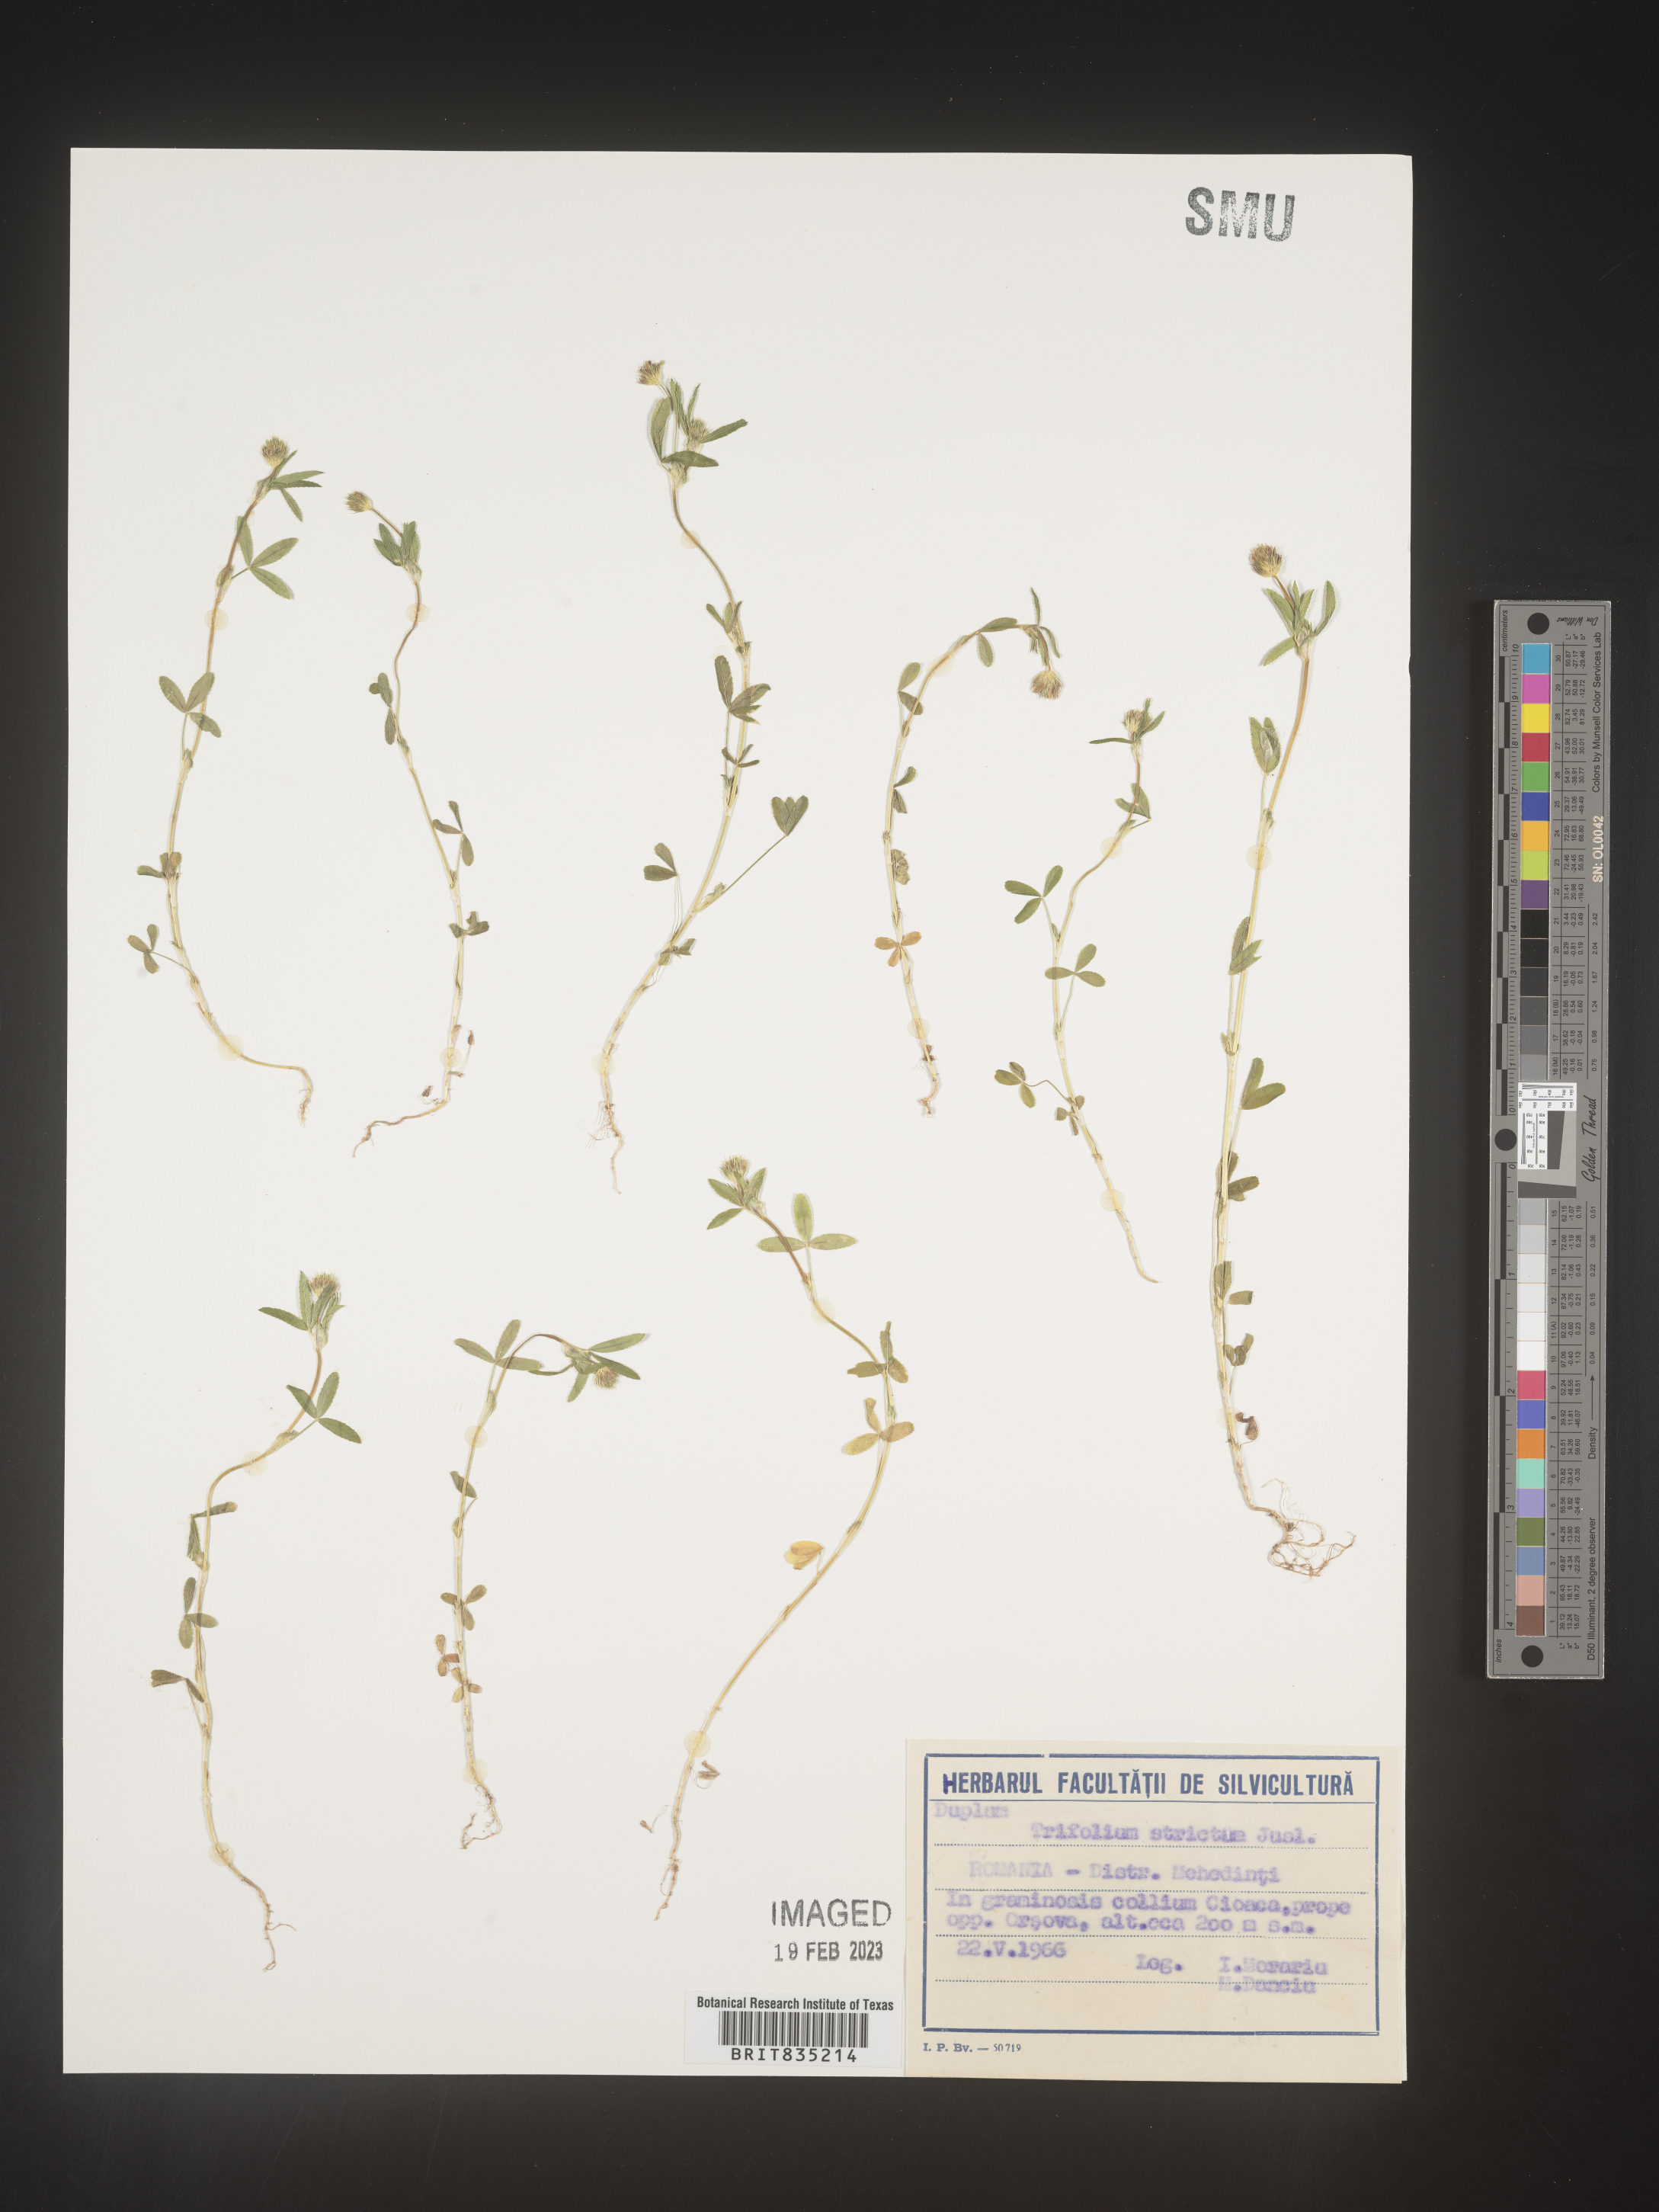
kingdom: Plantae
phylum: Tracheophyta
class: Magnoliopsida
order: Fabales
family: Fabaceae
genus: Trifolium
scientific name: Trifolium
